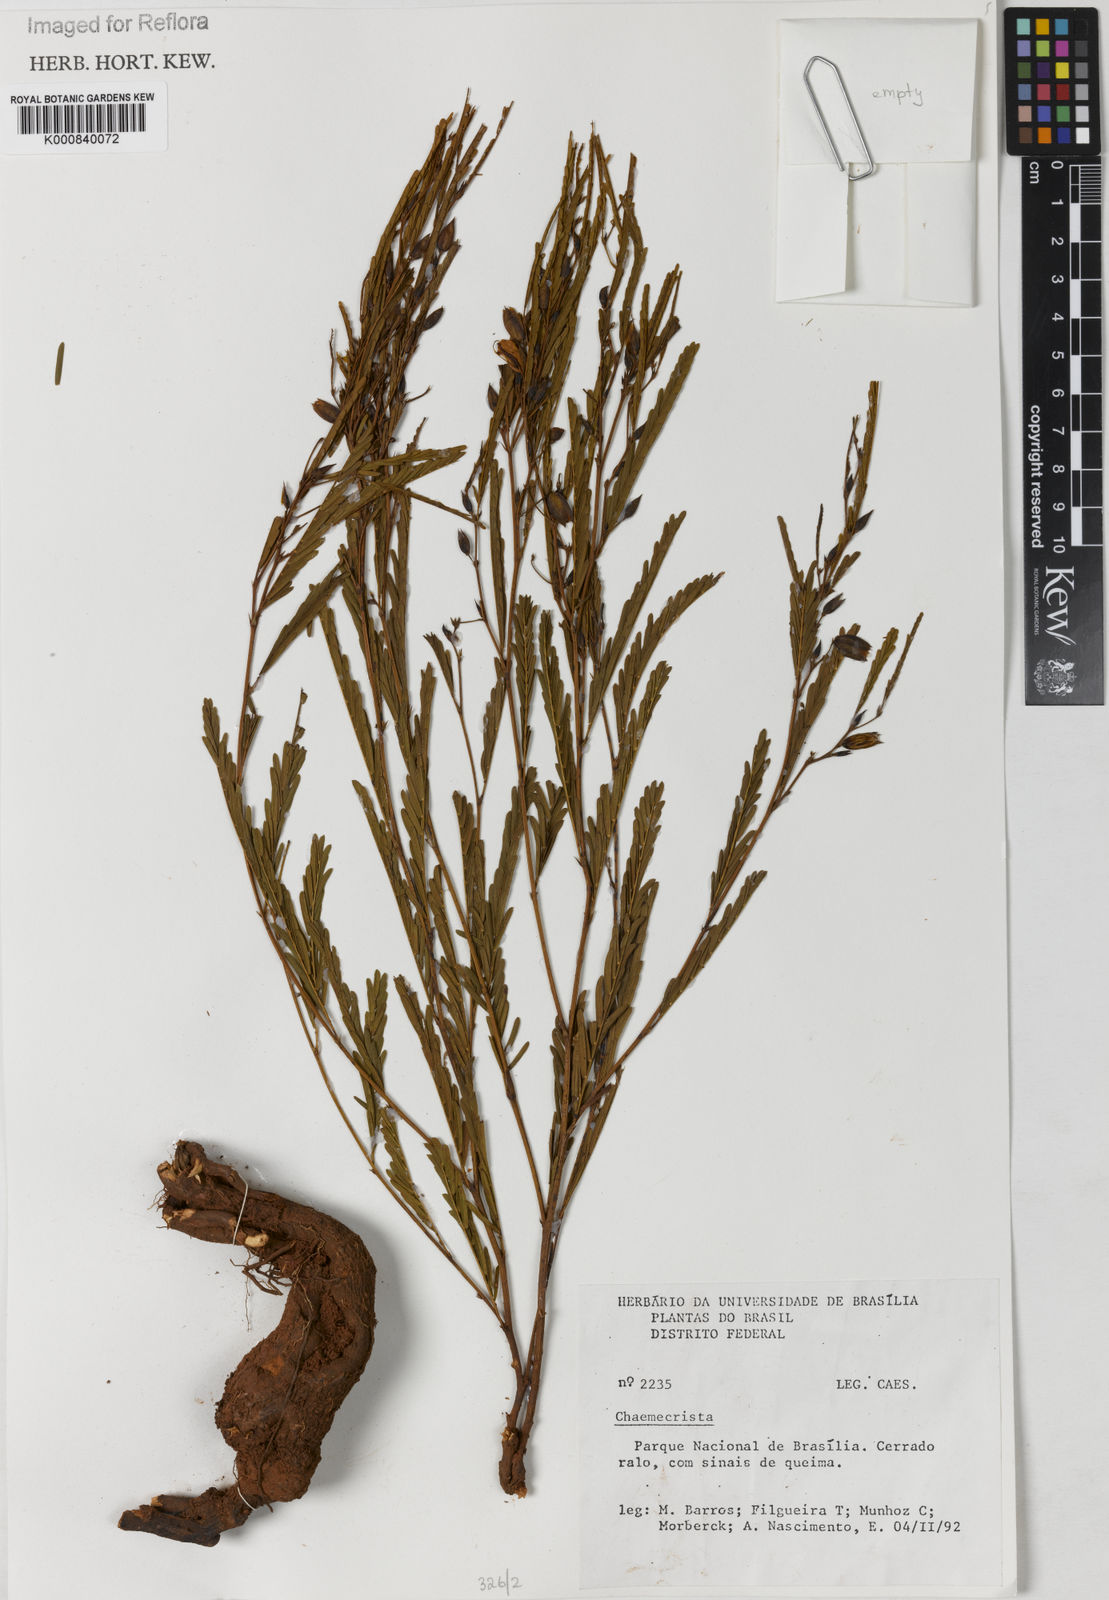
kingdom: Plantae
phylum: Tracheophyta
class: Magnoliopsida
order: Fabales
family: Fabaceae
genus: Chamaecrista
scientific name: Chamaecrista parvistipula
